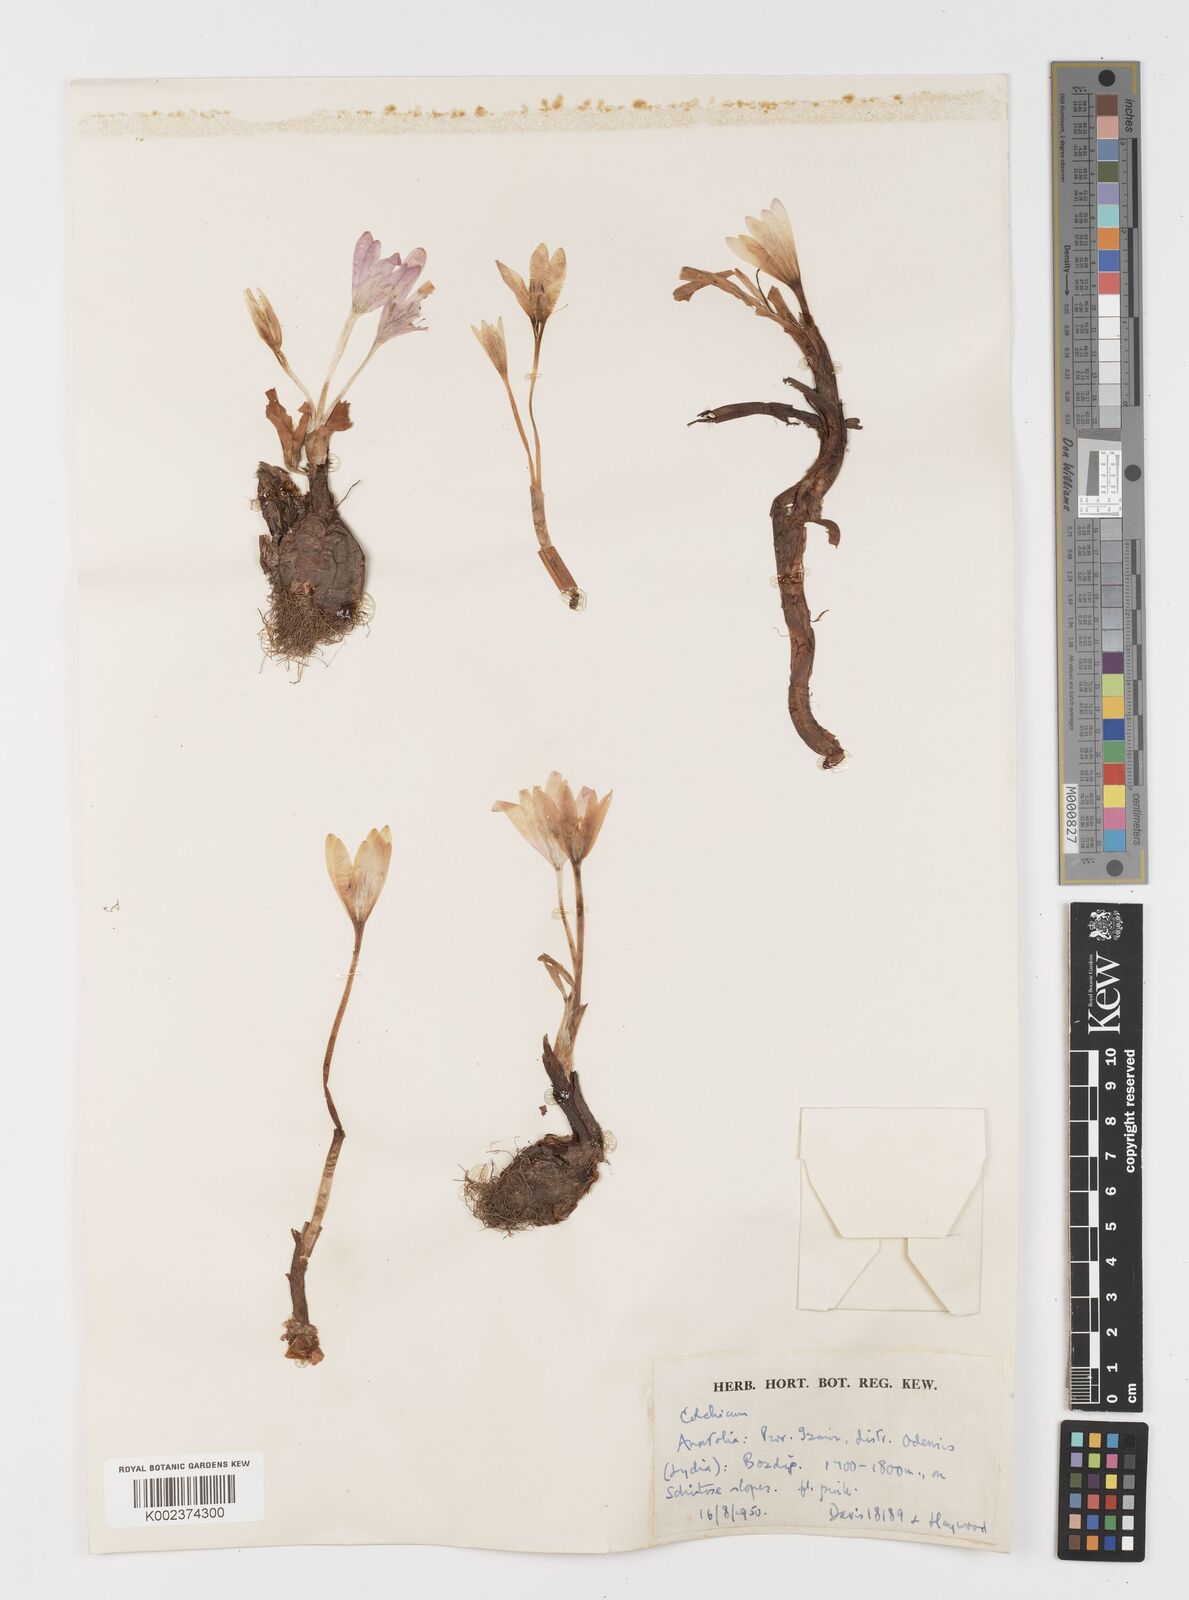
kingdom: Plantae
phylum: Tracheophyta
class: Liliopsida
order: Liliales
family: Colchicaceae
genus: Colchicum
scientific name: Colchicum
